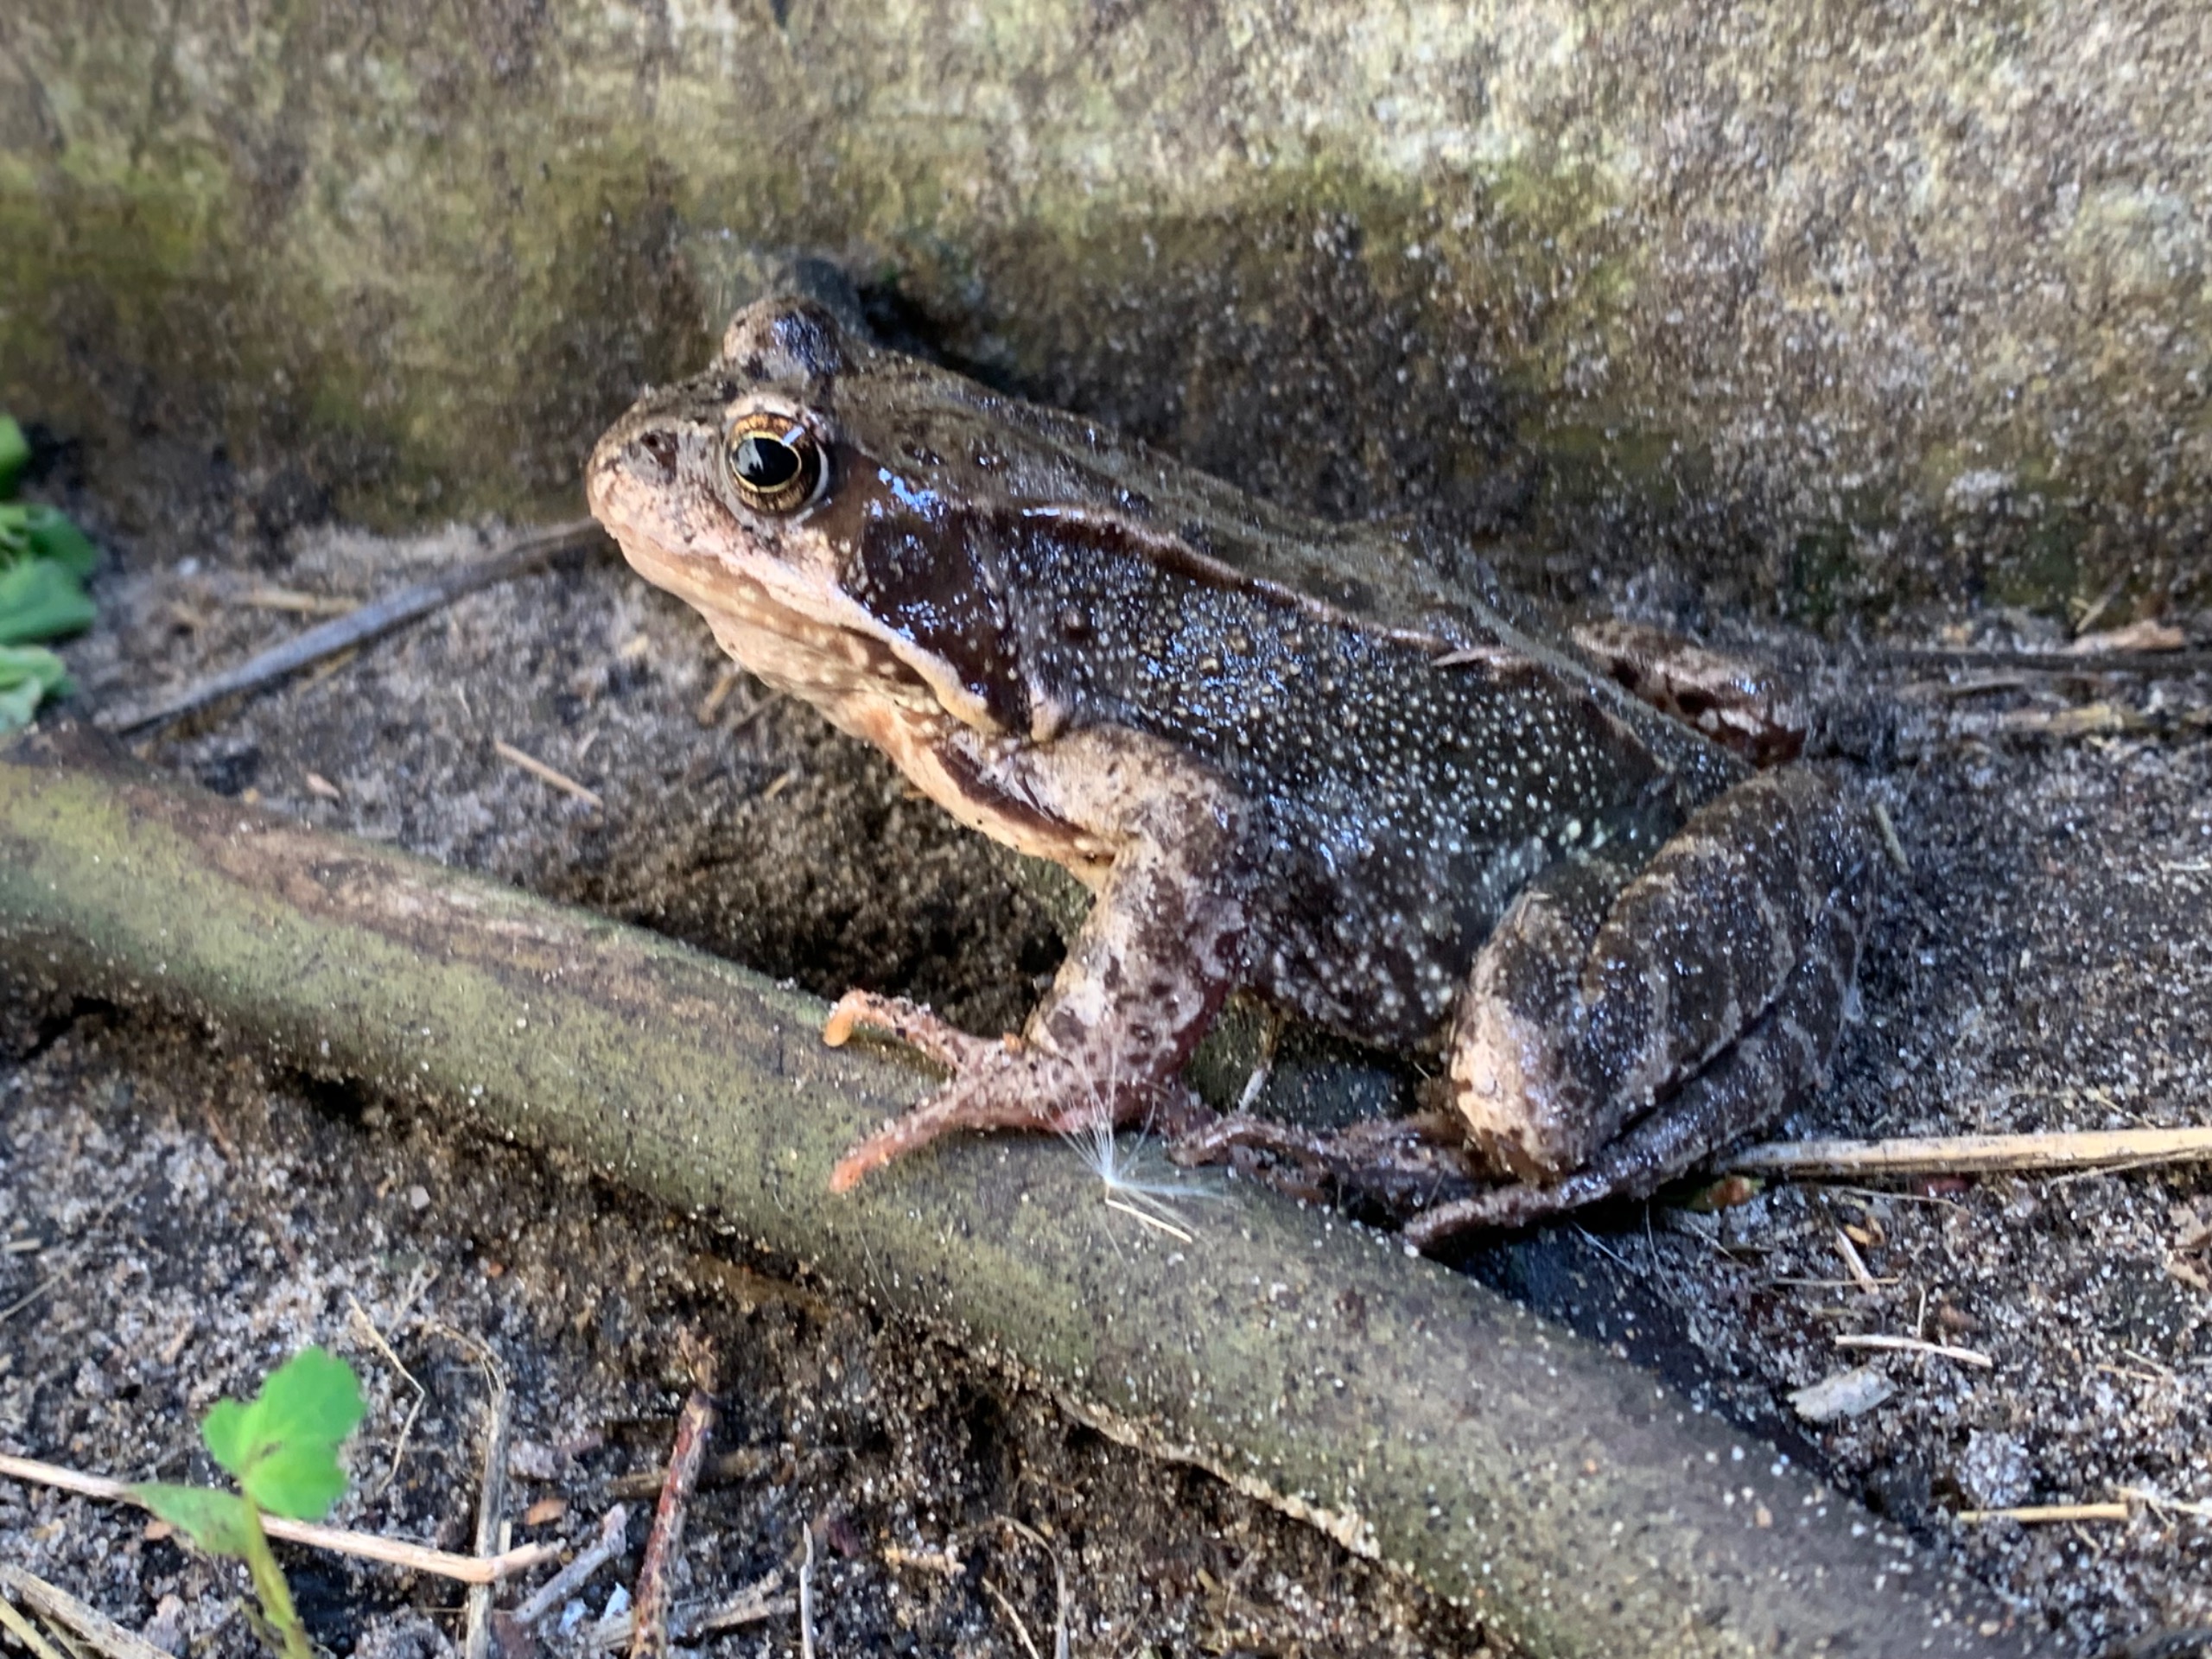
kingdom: Animalia
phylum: Chordata
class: Amphibia
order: Anura
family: Ranidae
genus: Rana
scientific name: Rana temporaria
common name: Butsnudet frø
